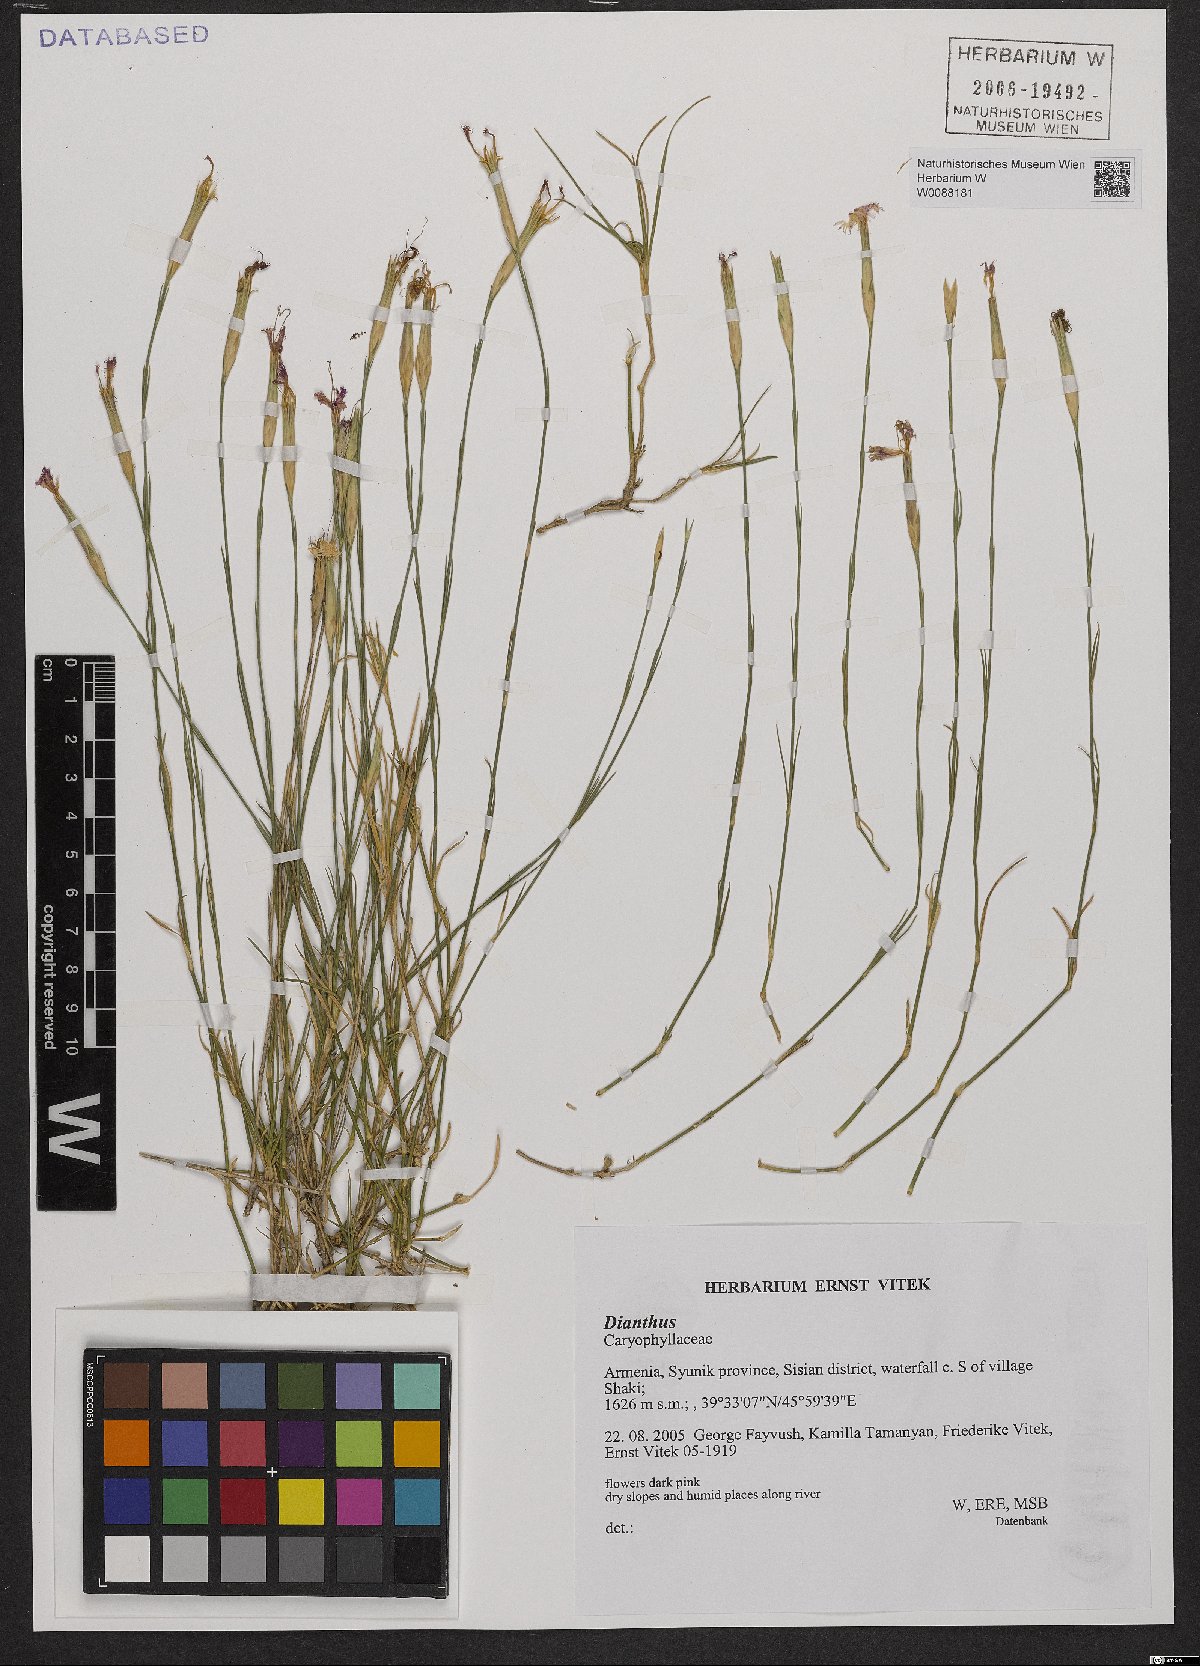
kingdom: Plantae
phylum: Tracheophyta
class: Magnoliopsida
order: Caryophyllales
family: Caryophyllaceae
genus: Dianthus
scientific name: Dianthus
